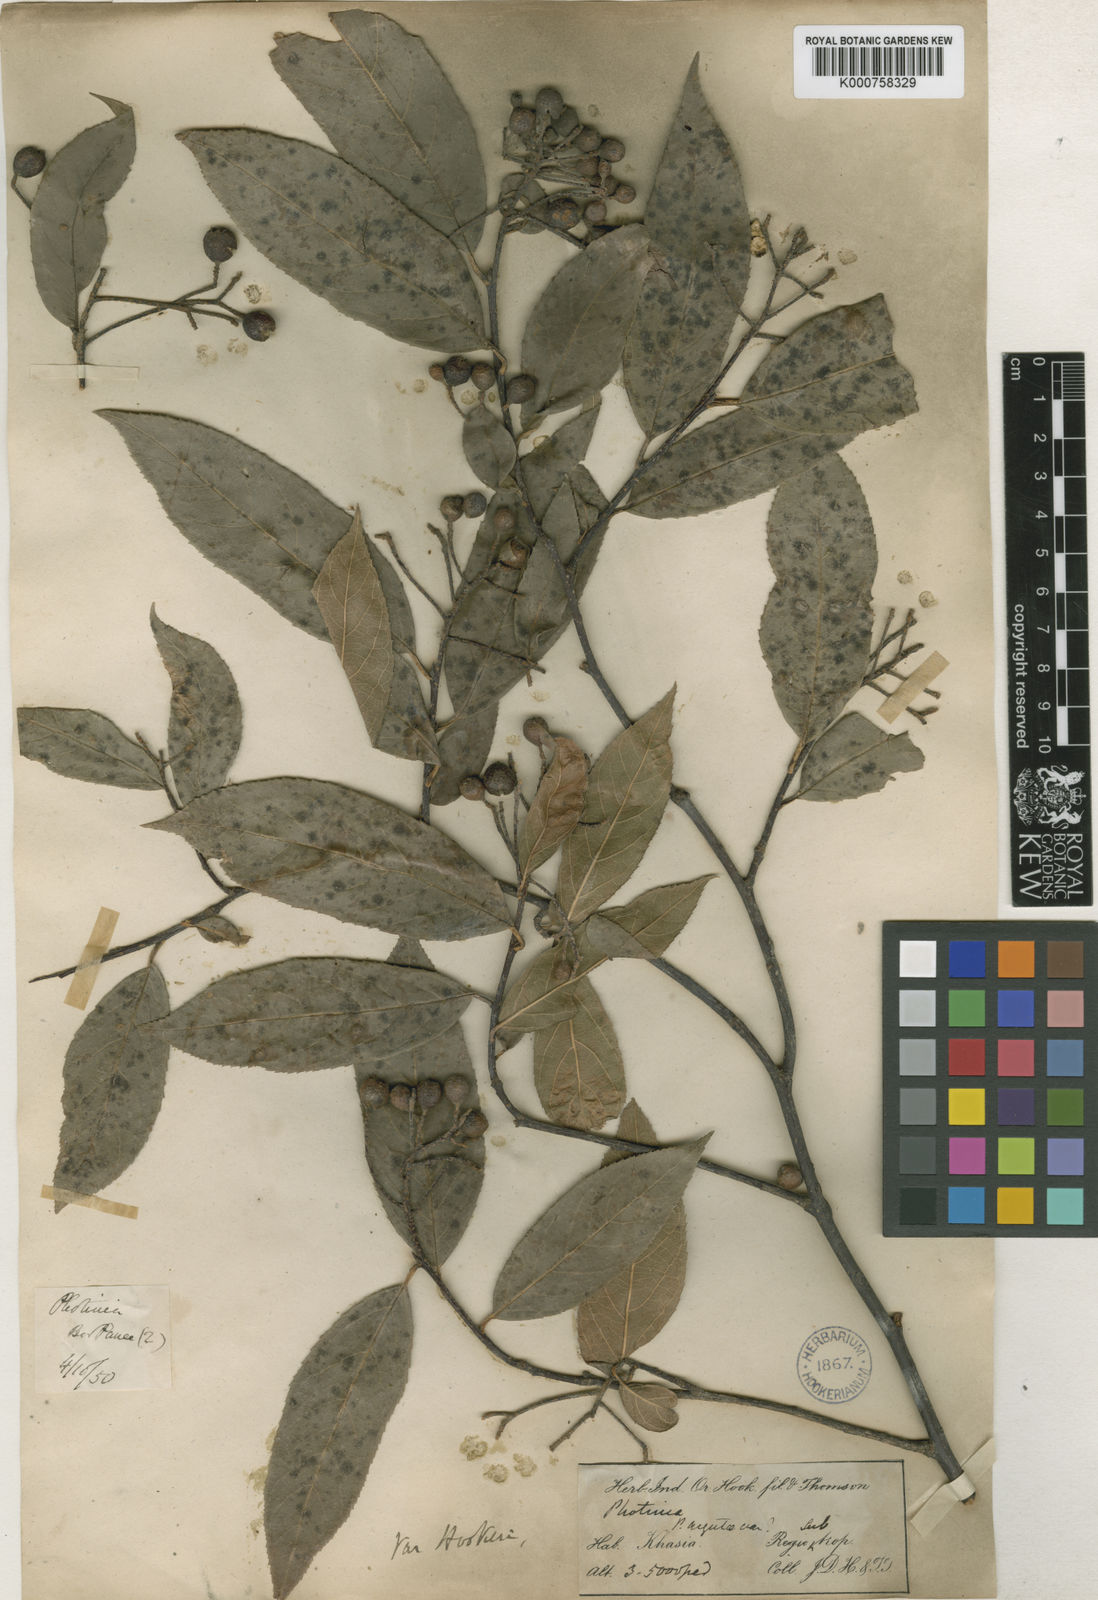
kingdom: Plantae
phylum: Tracheophyta
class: Magnoliopsida
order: Rosales
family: Rosaceae
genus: Photinia
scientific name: Photinia
